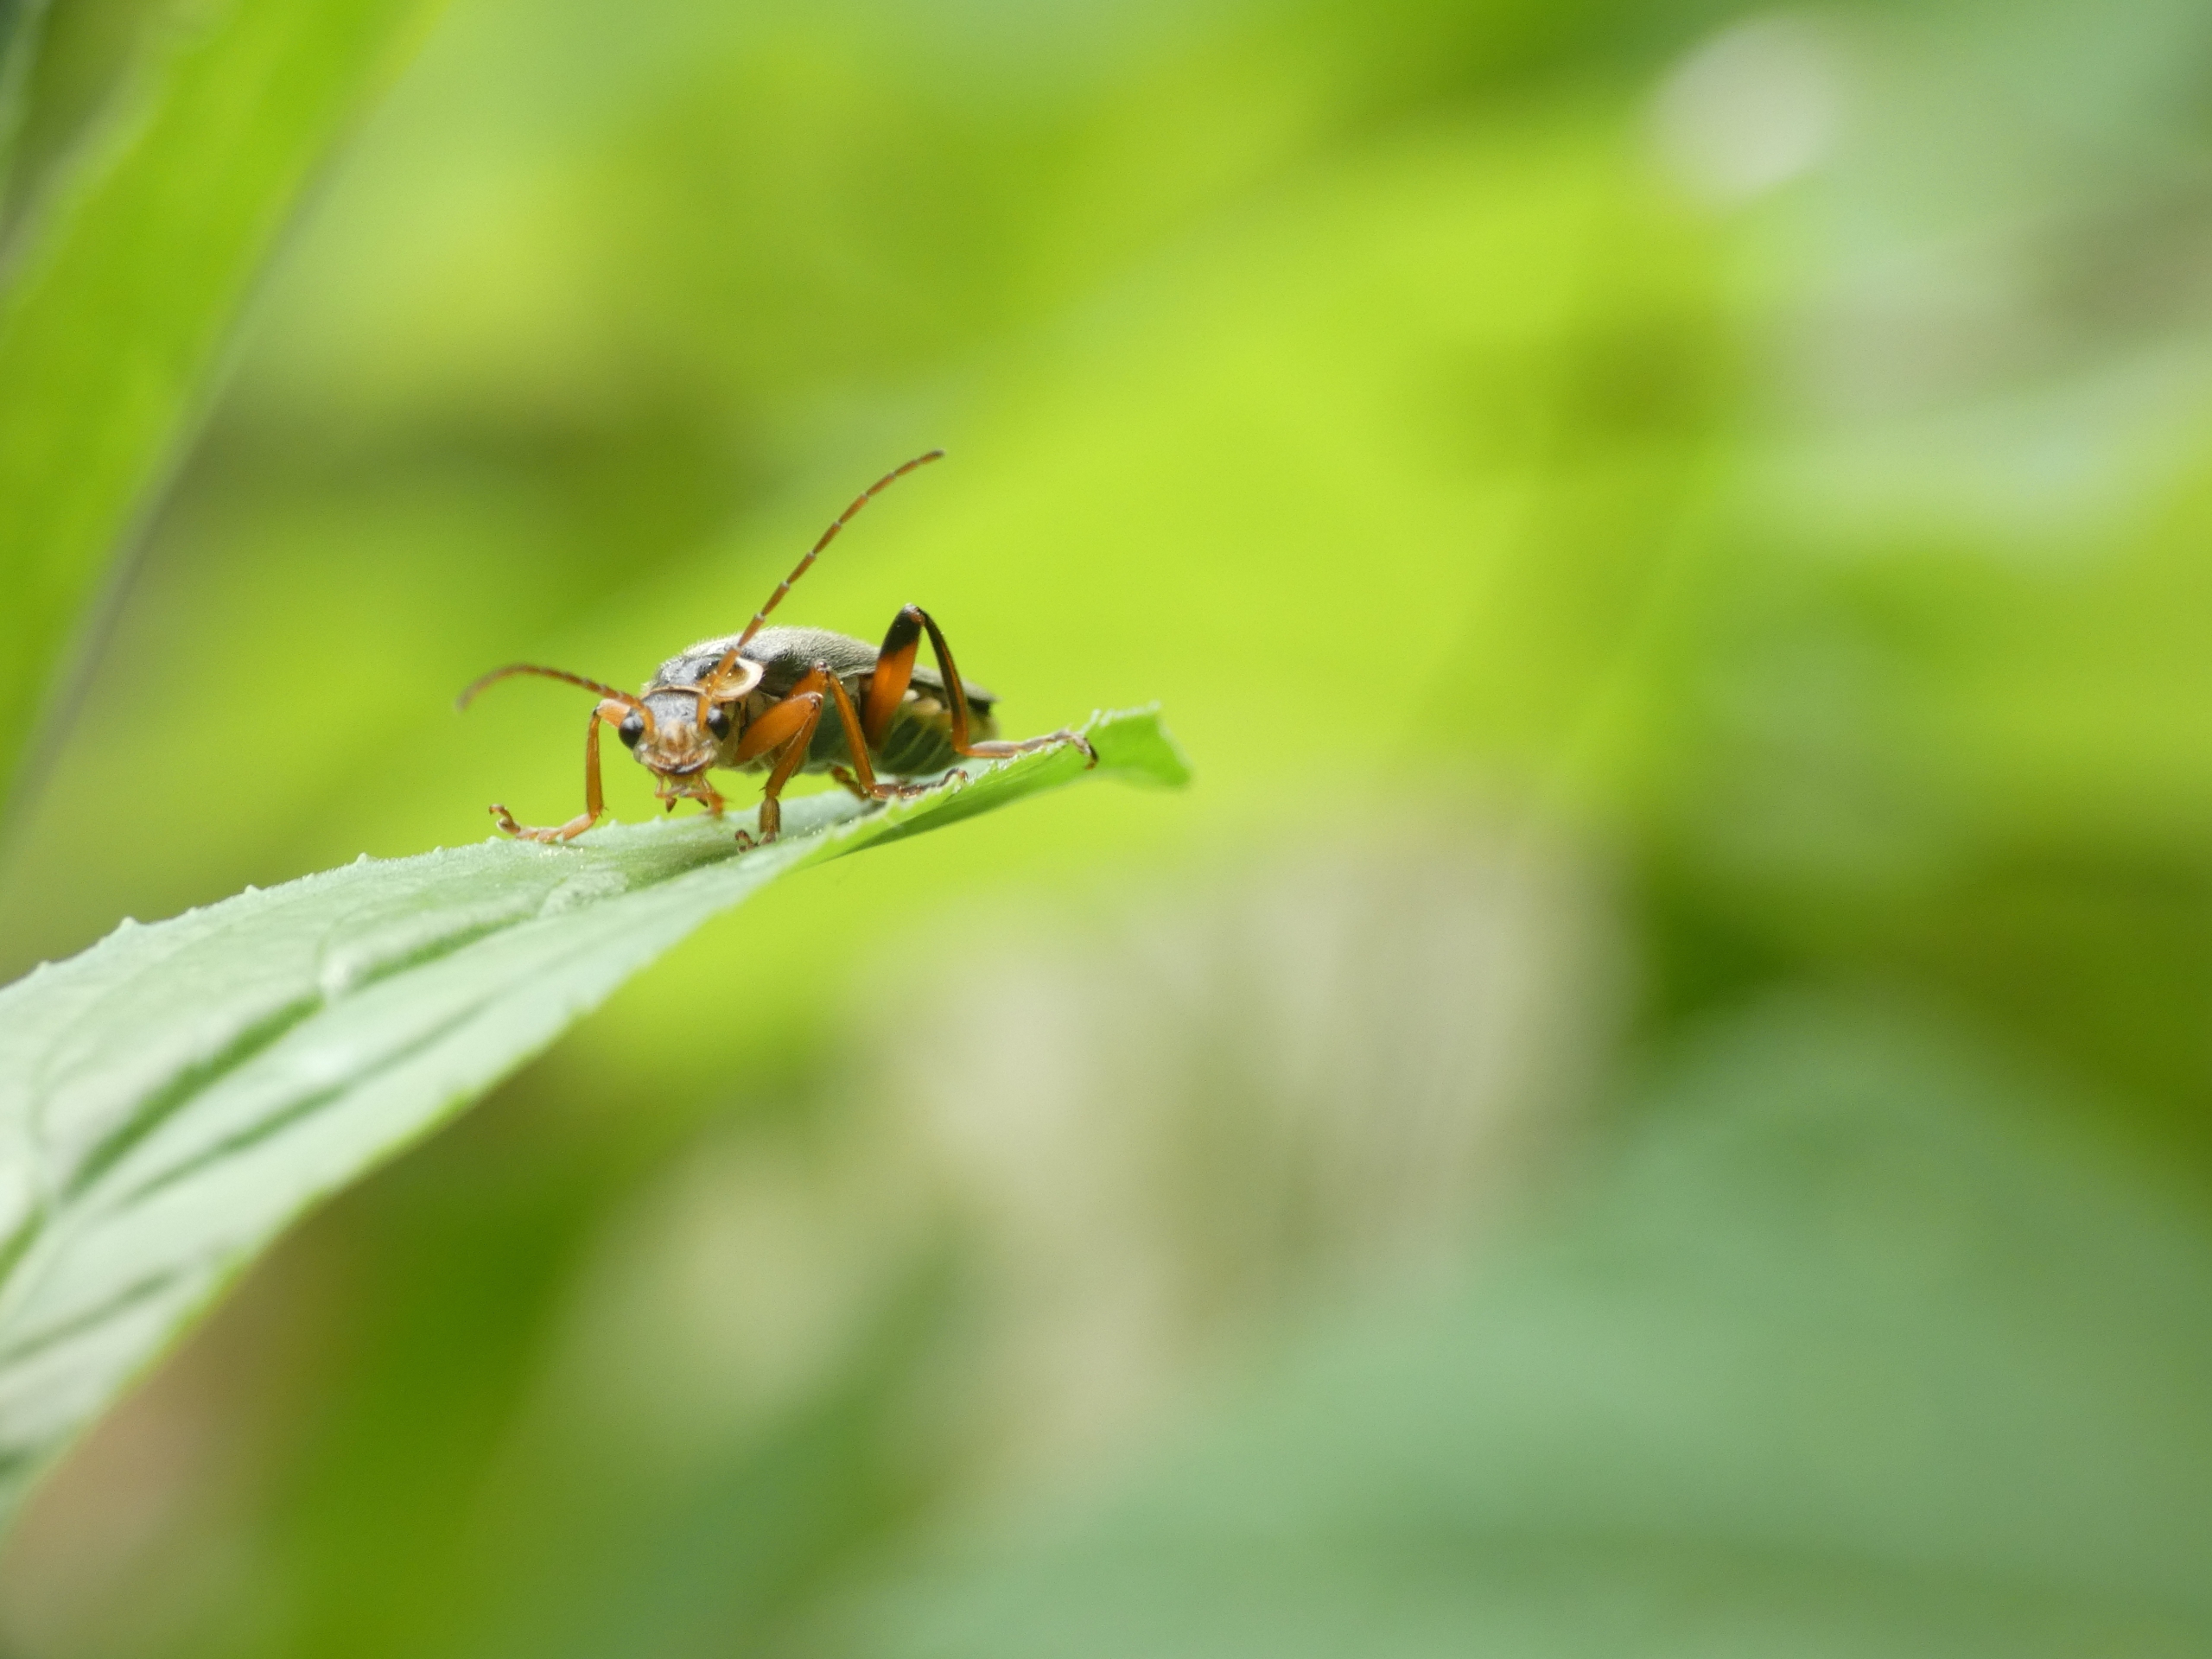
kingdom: Animalia
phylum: Arthropoda
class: Insecta
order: Coleoptera
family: Cantharidae
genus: Cantharis
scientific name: Cantharis nigricans
